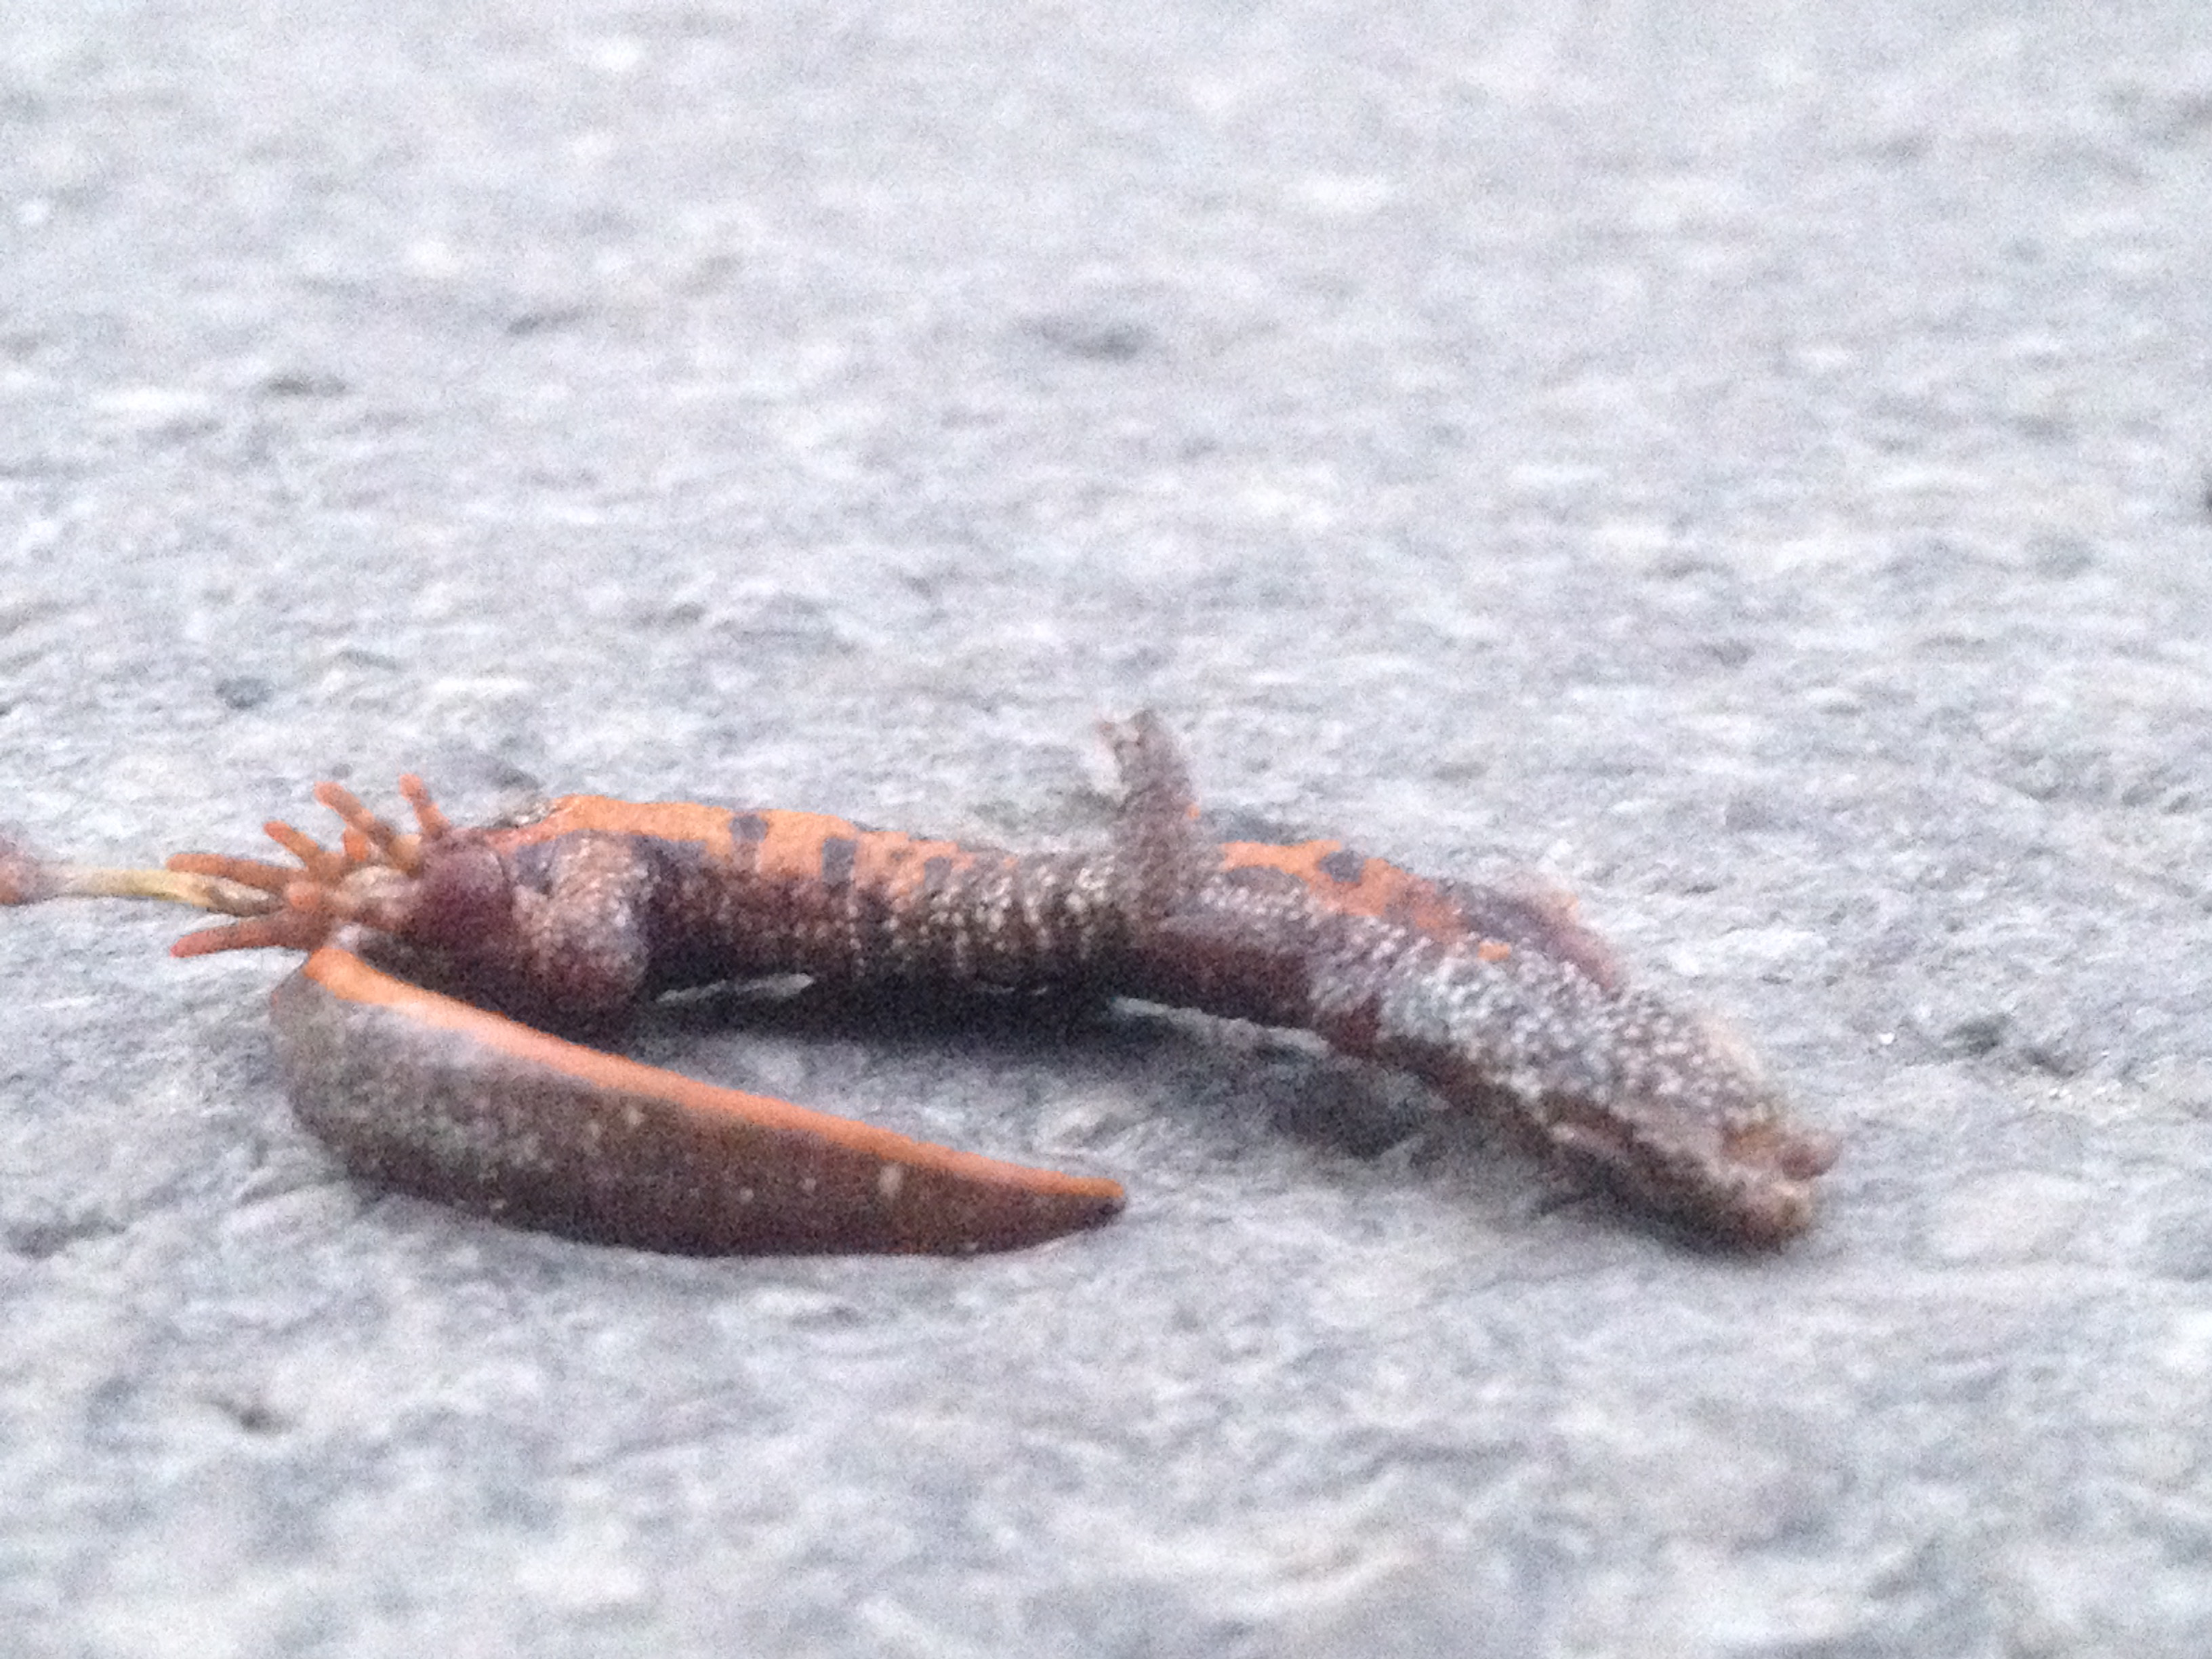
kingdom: Animalia
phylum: Chordata
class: Amphibia
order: Caudata
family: Salamandridae
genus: Triturus
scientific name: Triturus dobrogicus
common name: Danube crested newt
